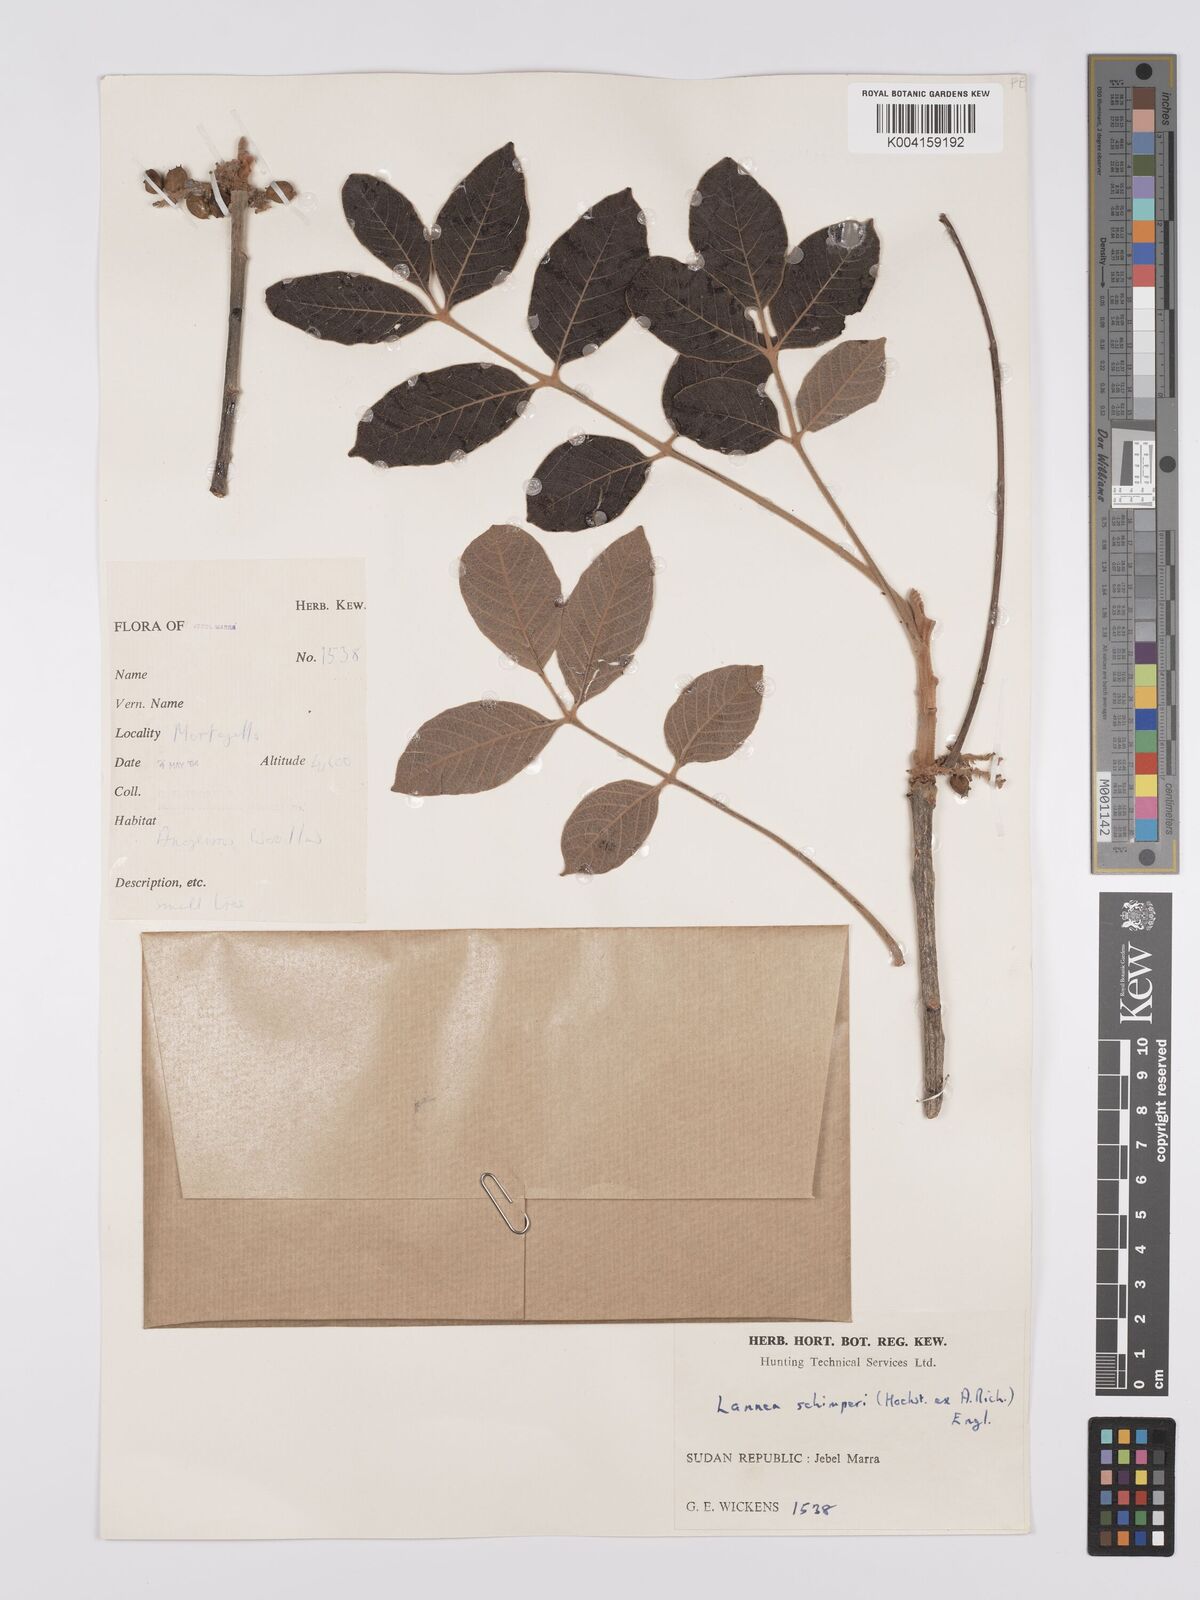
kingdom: Plantae
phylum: Tracheophyta
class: Magnoliopsida
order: Sapindales
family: Anacardiaceae
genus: Lannea
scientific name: Lannea schimperi
